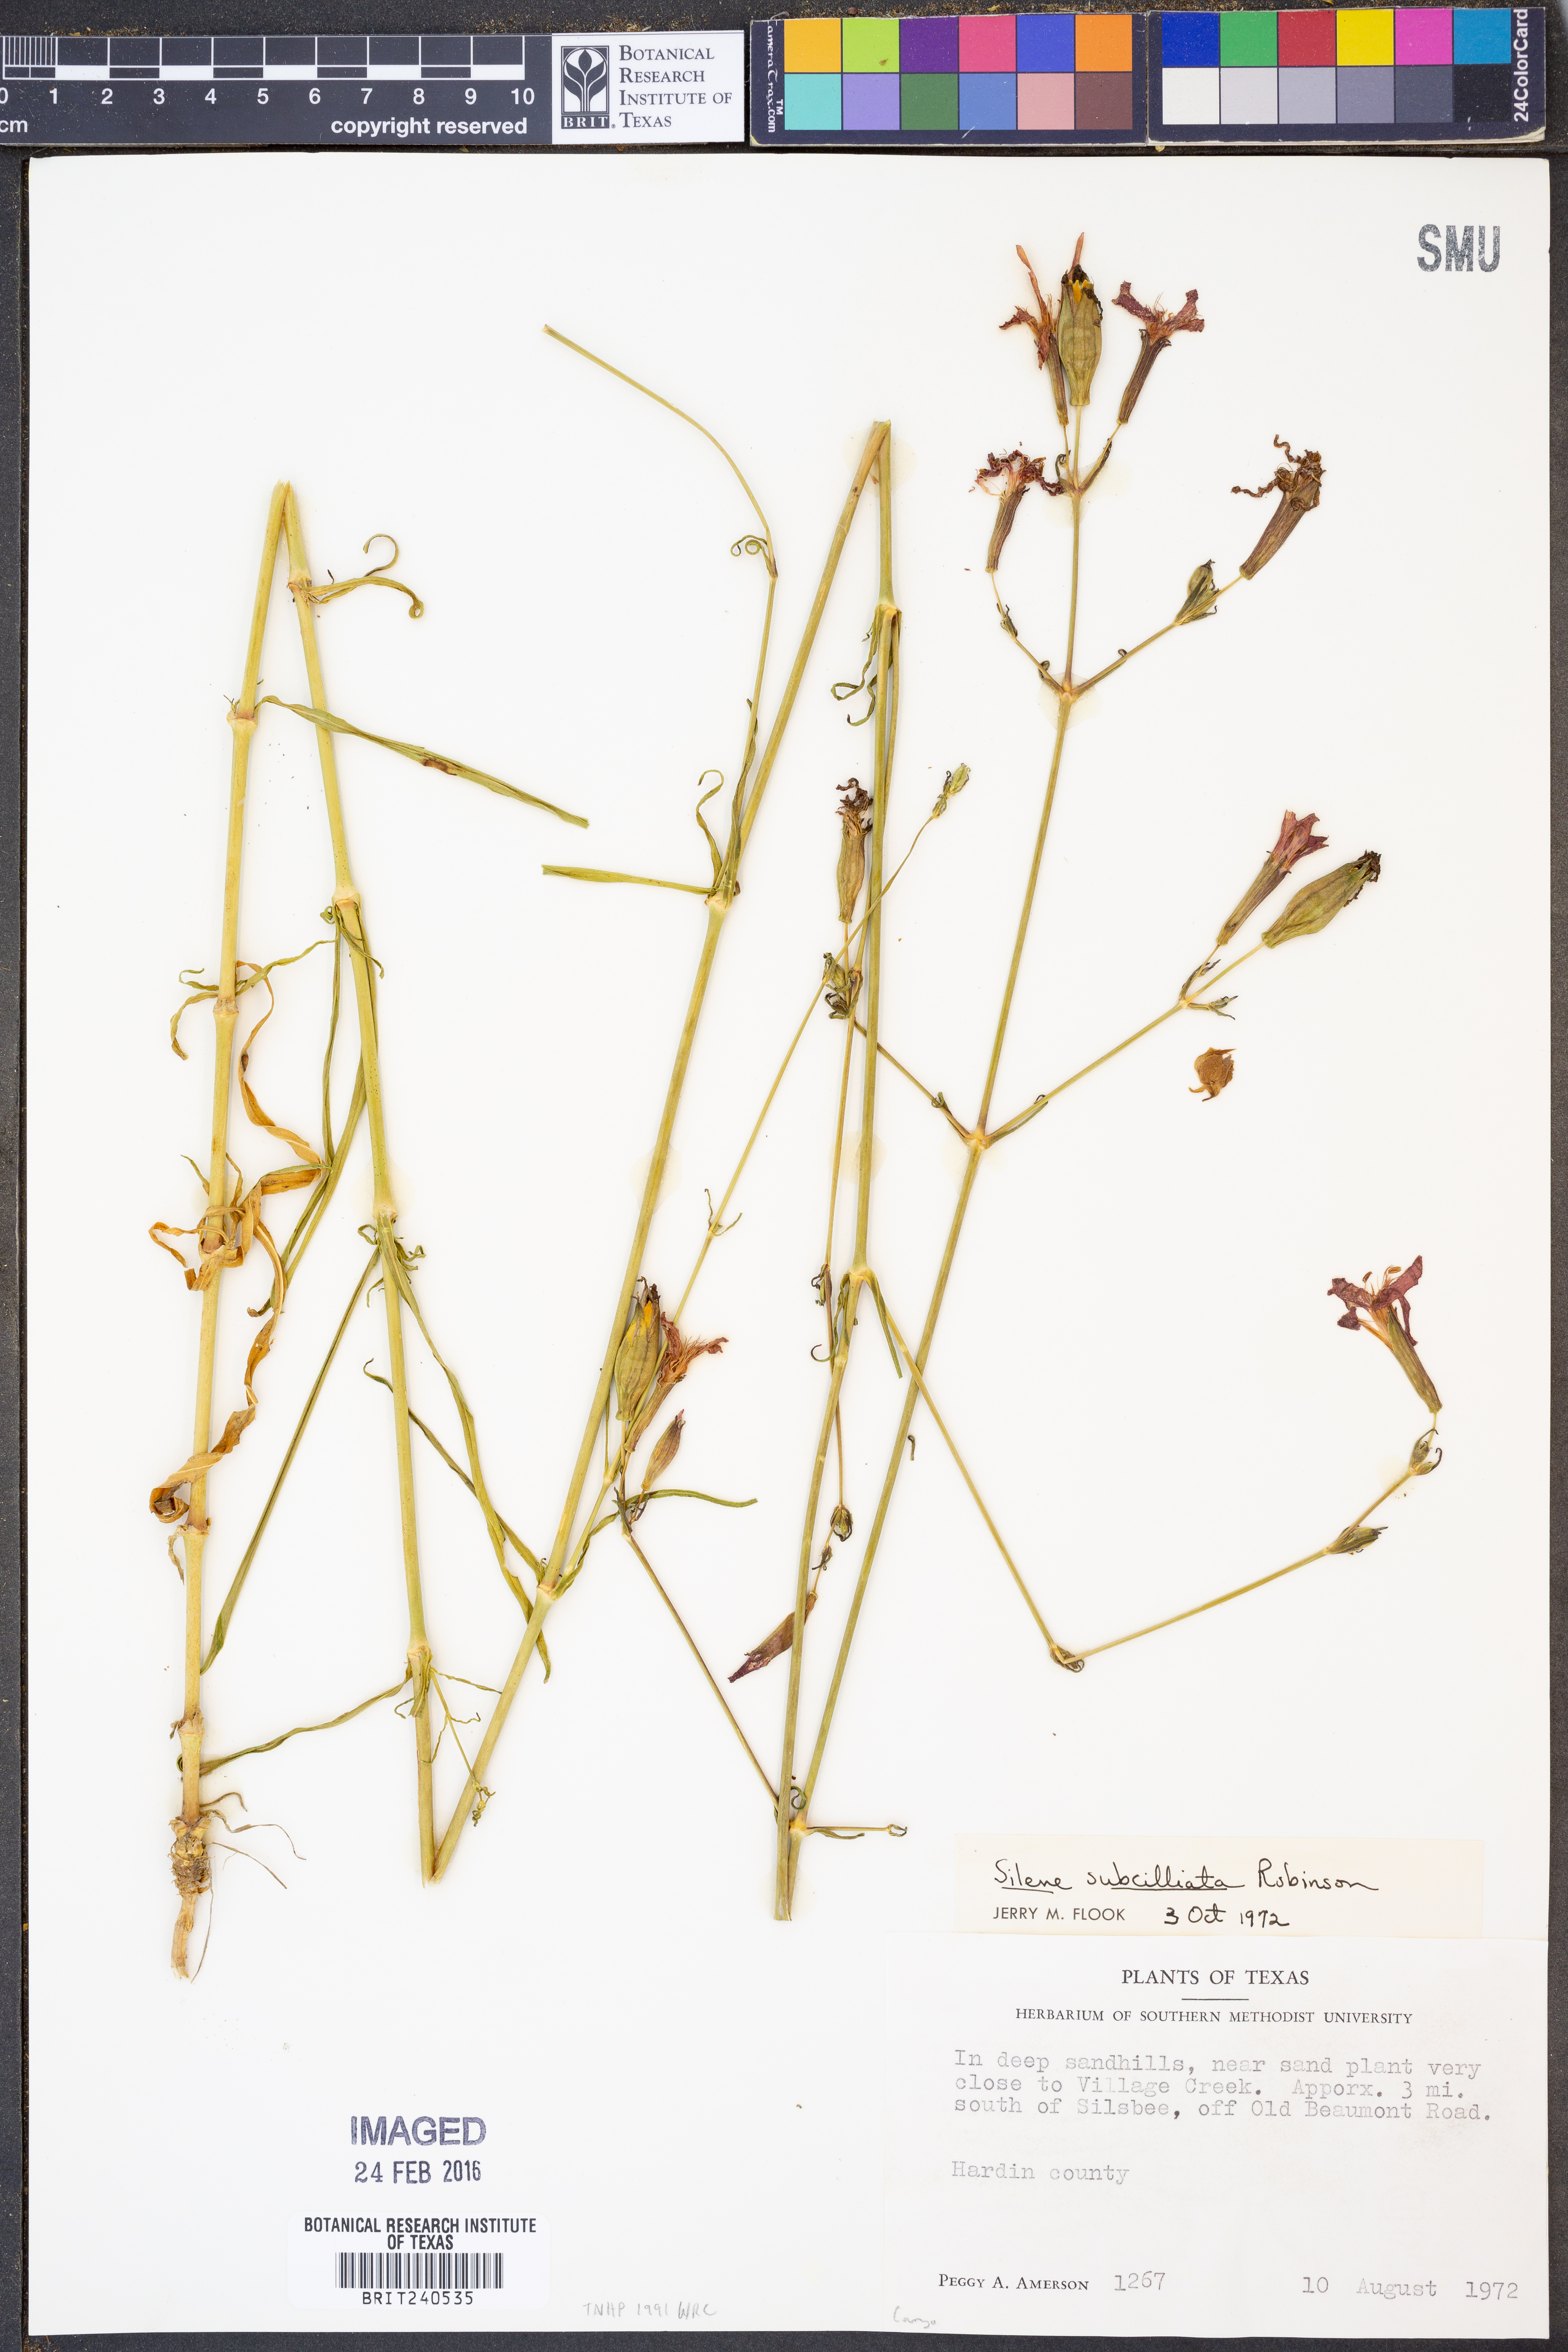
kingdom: Plantae
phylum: Tracheophyta
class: Magnoliopsida
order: Caryophyllales
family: Caryophyllaceae
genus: Silene
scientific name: Silene subciliata
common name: Prairie fire-pink
